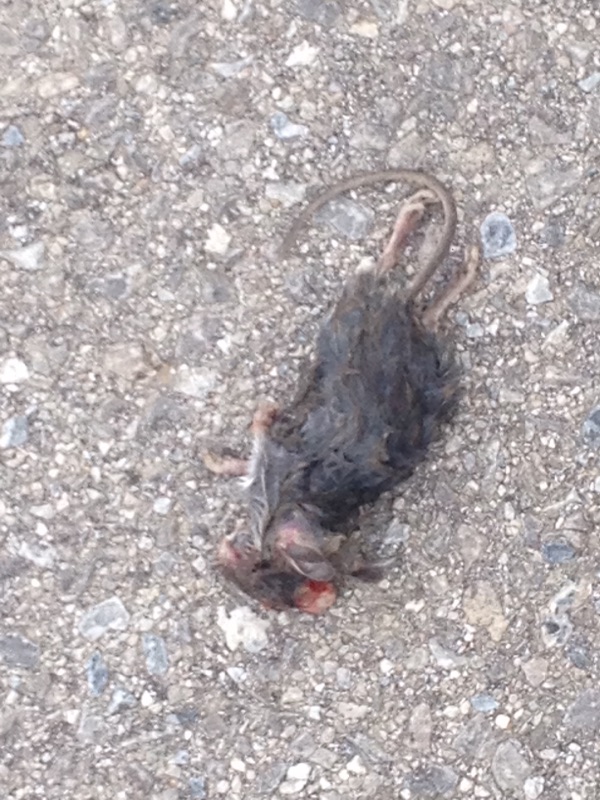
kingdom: Animalia
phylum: Chordata
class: Mammalia
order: Rodentia
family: Muridae
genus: Apodemus
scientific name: Apodemus
